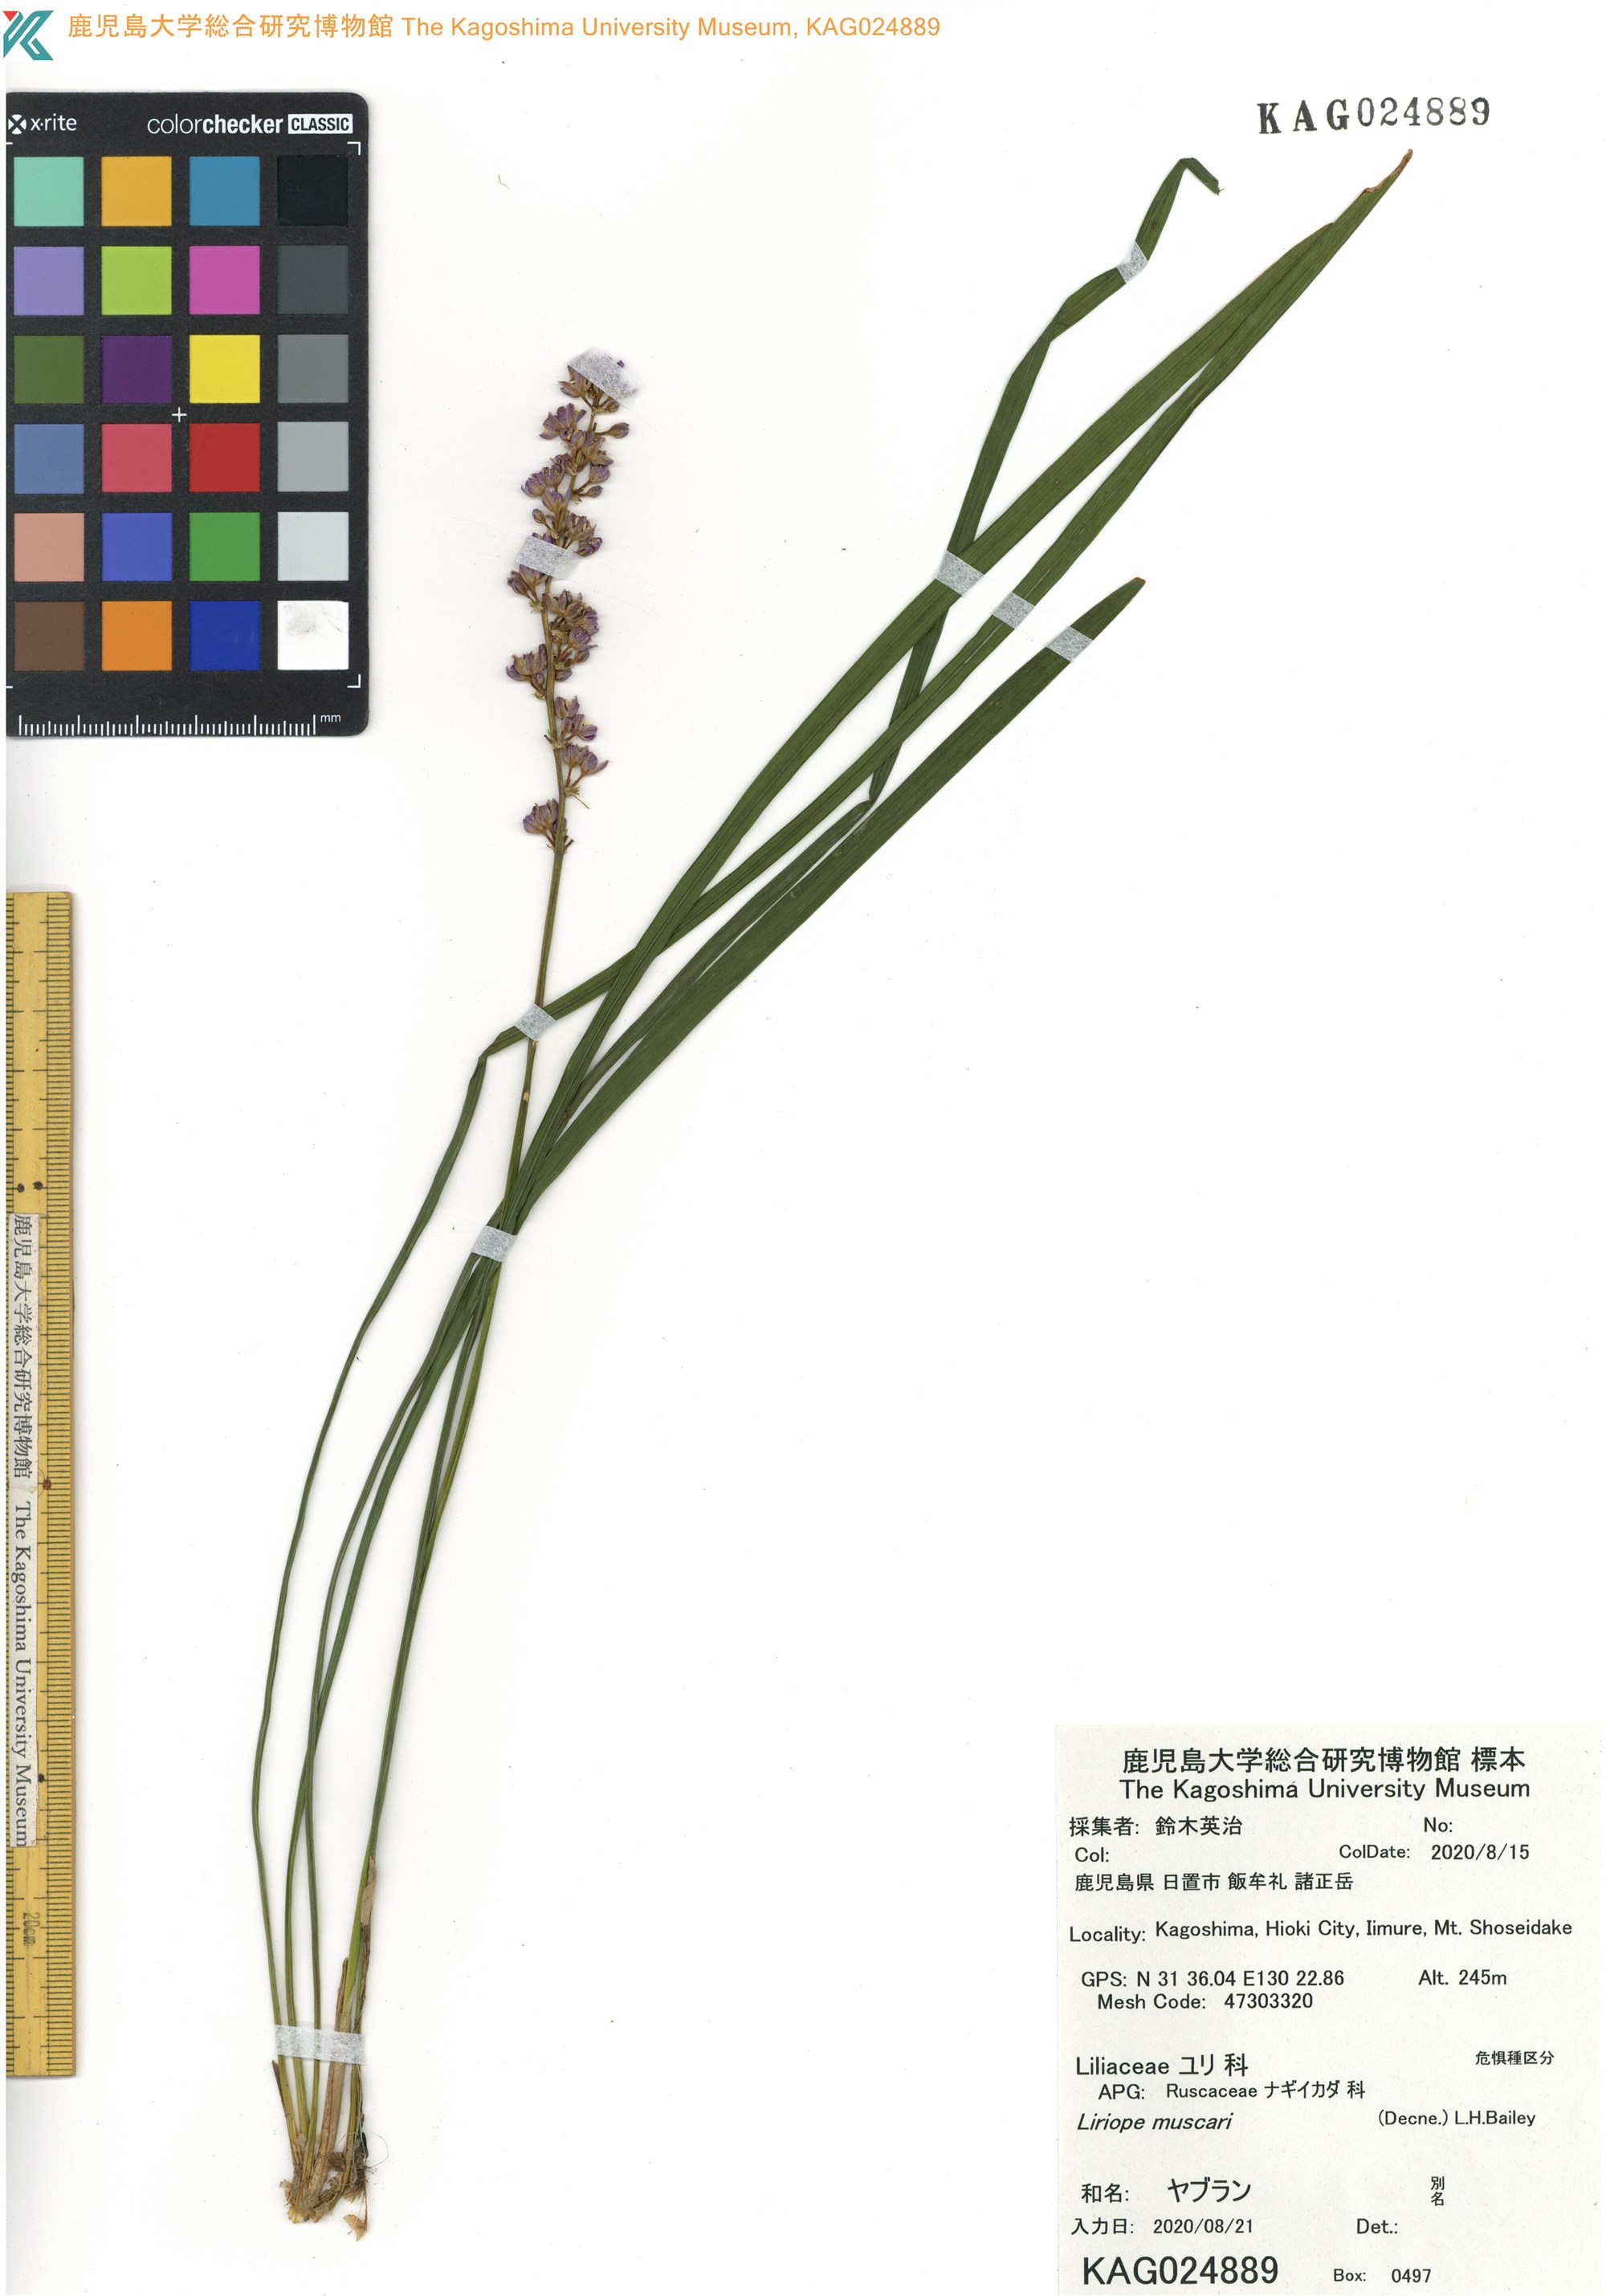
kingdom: Plantae
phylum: Tracheophyta
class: Liliopsida
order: Asparagales
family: Asparagaceae
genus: Liriope
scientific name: Liriope muscari
